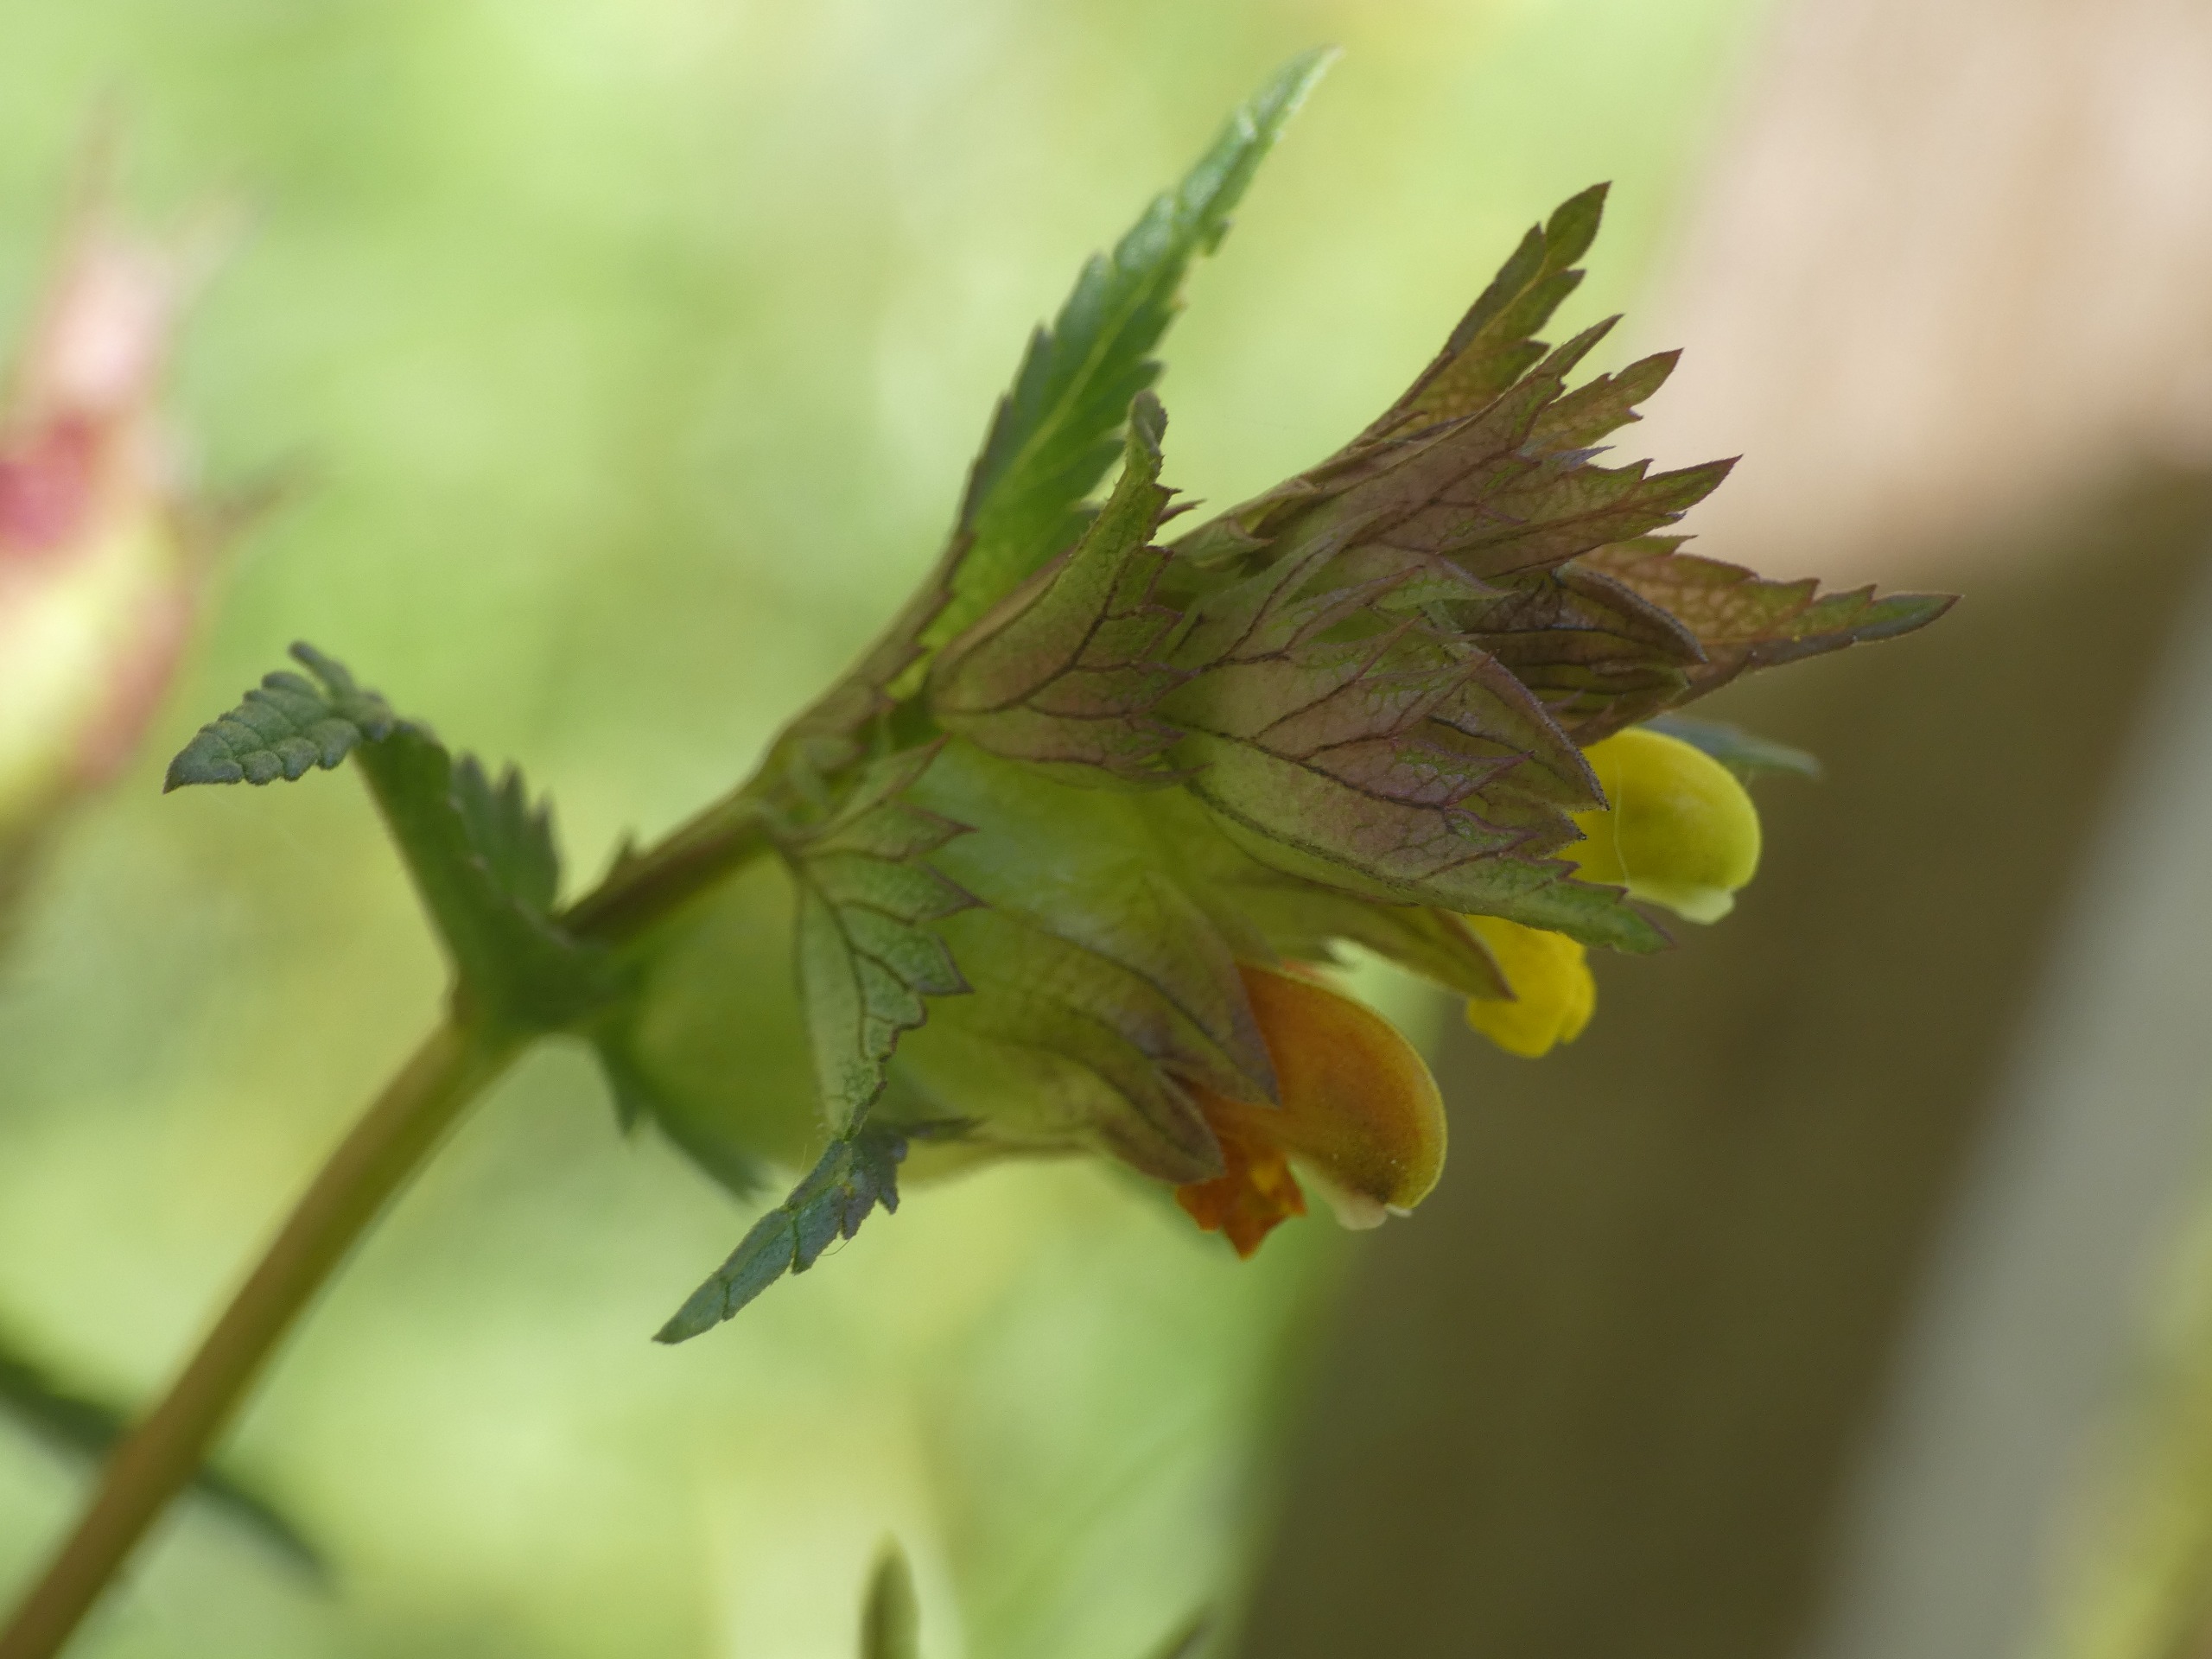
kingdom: Plantae
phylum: Tracheophyta
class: Magnoliopsida
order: Lamiales
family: Orobanchaceae
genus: Rhinanthus
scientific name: Rhinanthus minor
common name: Liden skjaller
